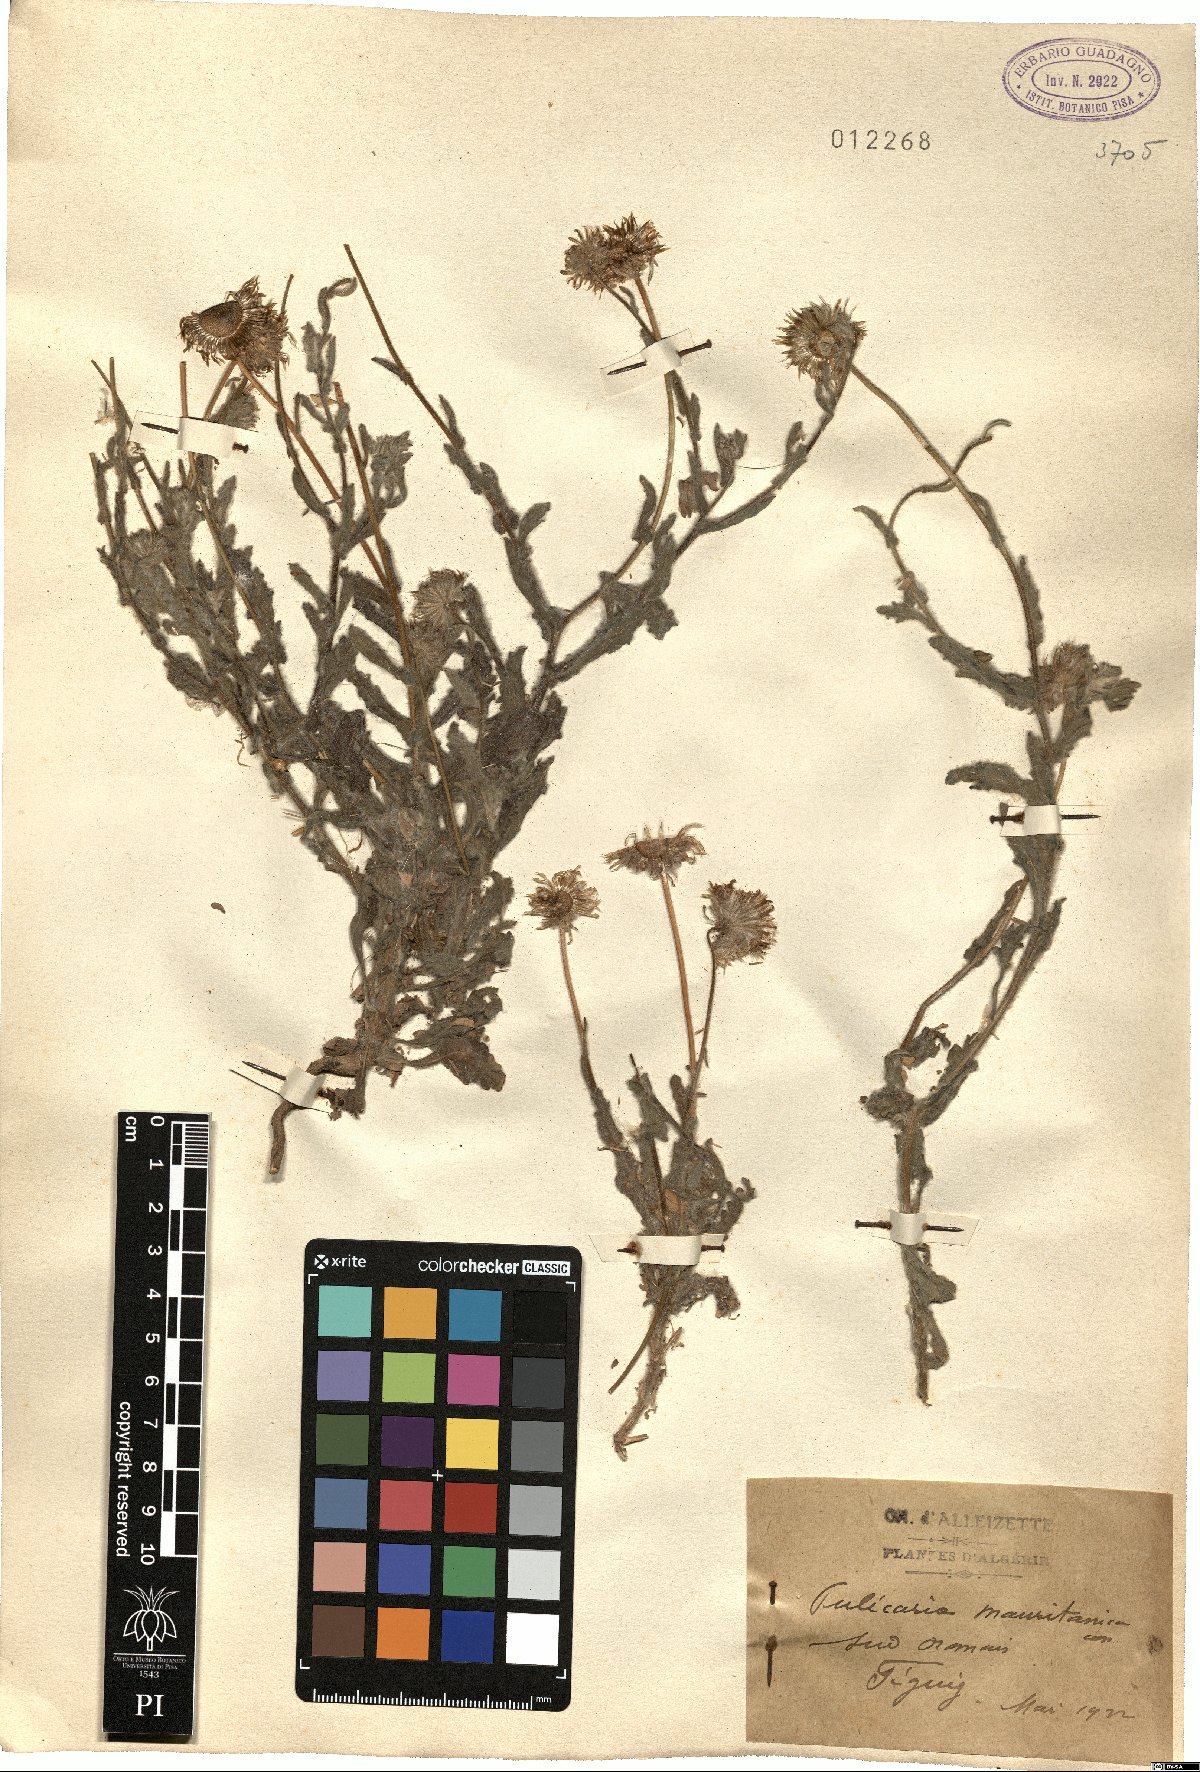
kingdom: Plantae
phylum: Tracheophyta
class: Magnoliopsida
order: Asterales
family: Asteraceae
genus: Pulicaria
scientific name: Pulicaria mauritanica
